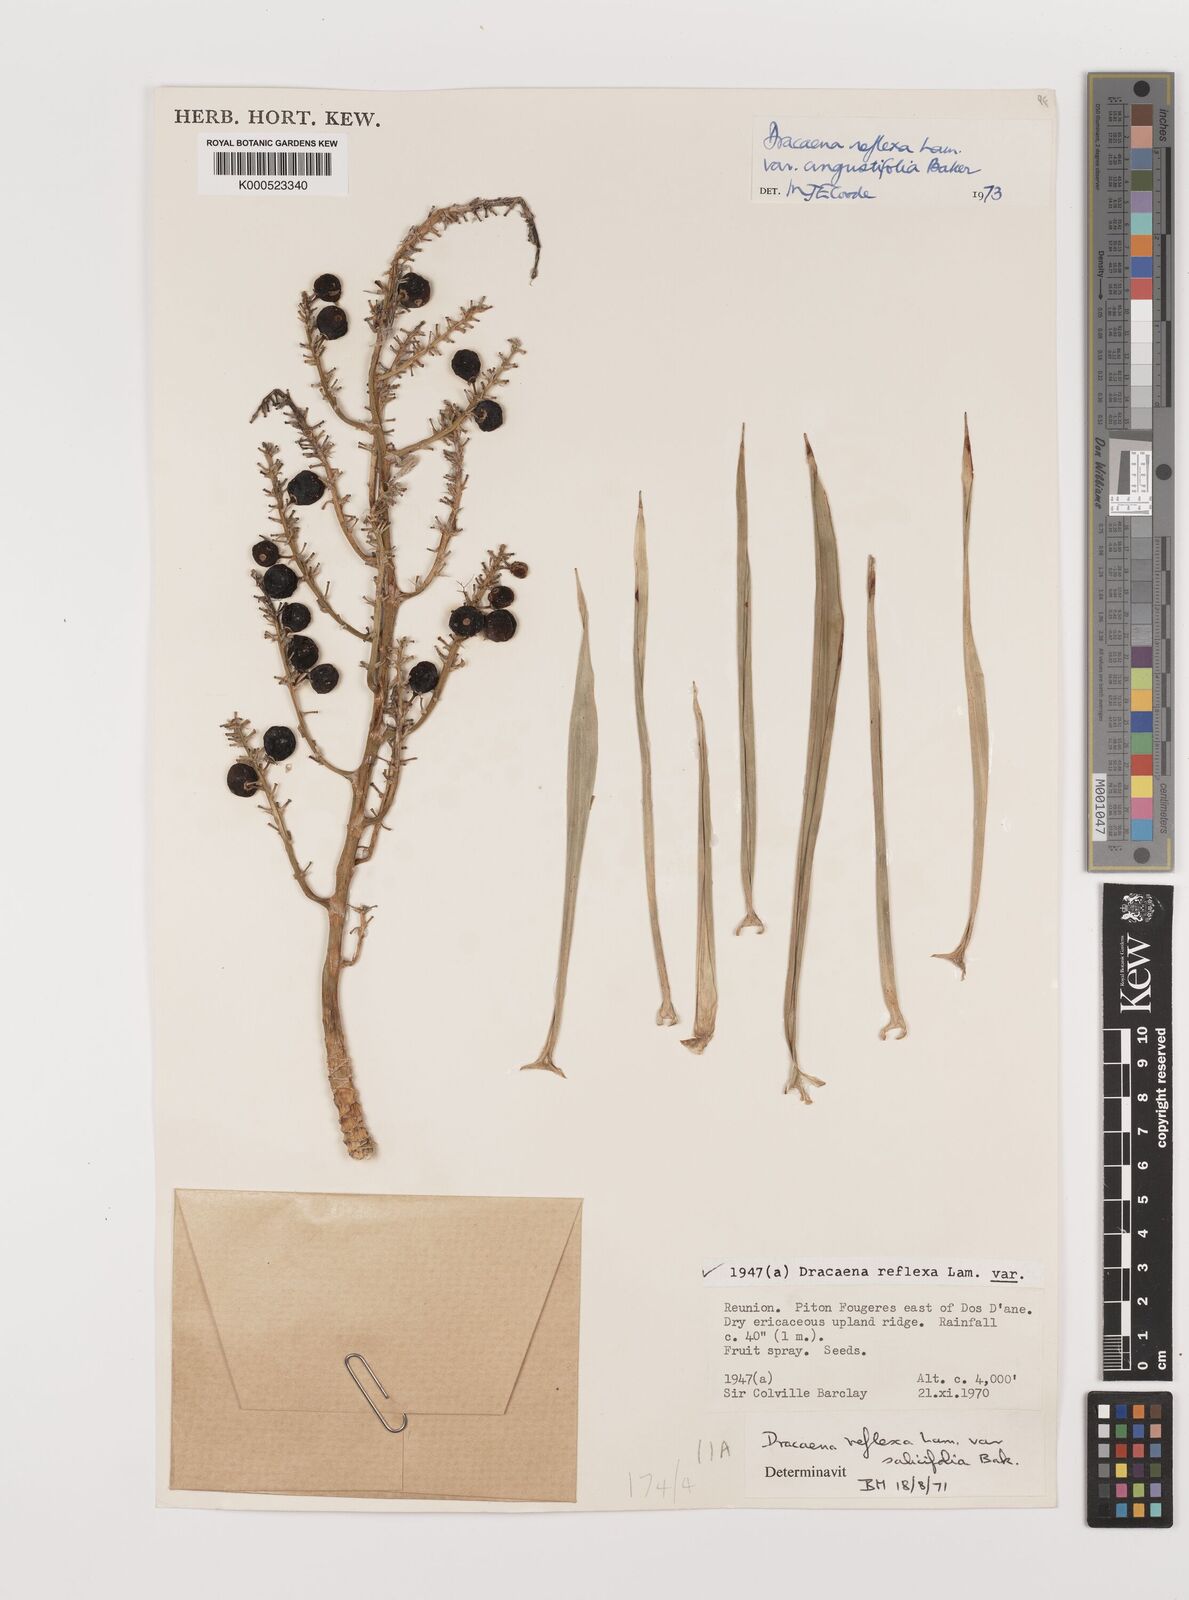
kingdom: Plantae
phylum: Tracheophyta
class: Liliopsida
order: Asparagales
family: Asparagaceae
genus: Dracaena
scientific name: Dracaena reflexa
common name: Song-of-india
